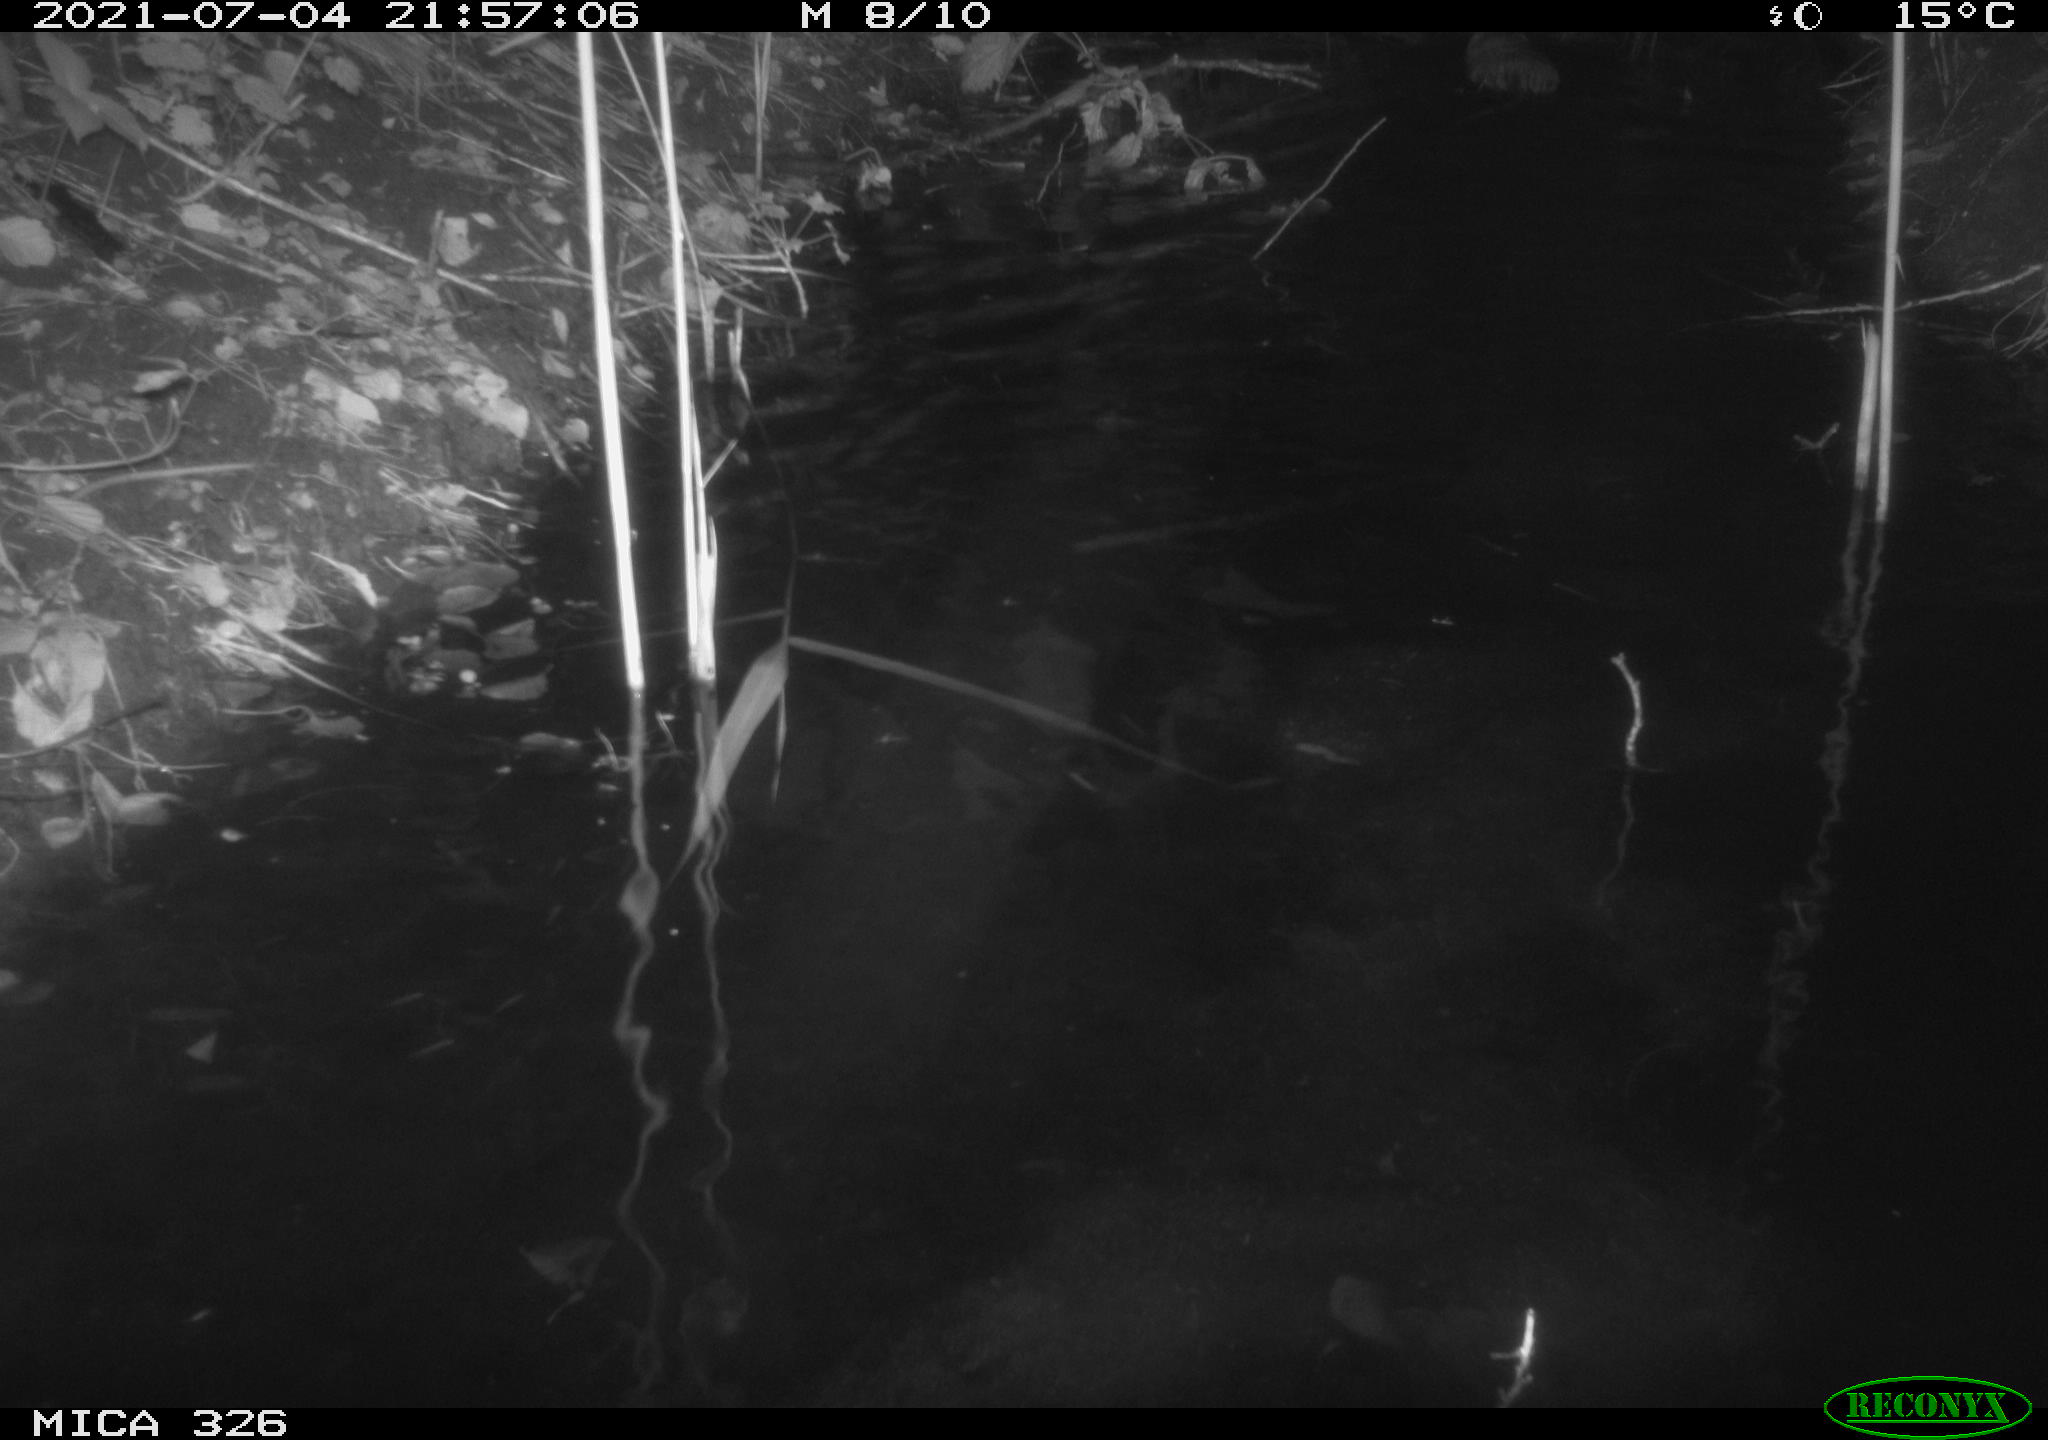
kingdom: Animalia
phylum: Chordata
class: Mammalia
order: Rodentia
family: Cricetidae
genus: Ondatra
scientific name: Ondatra zibethicus
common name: Muskrat
